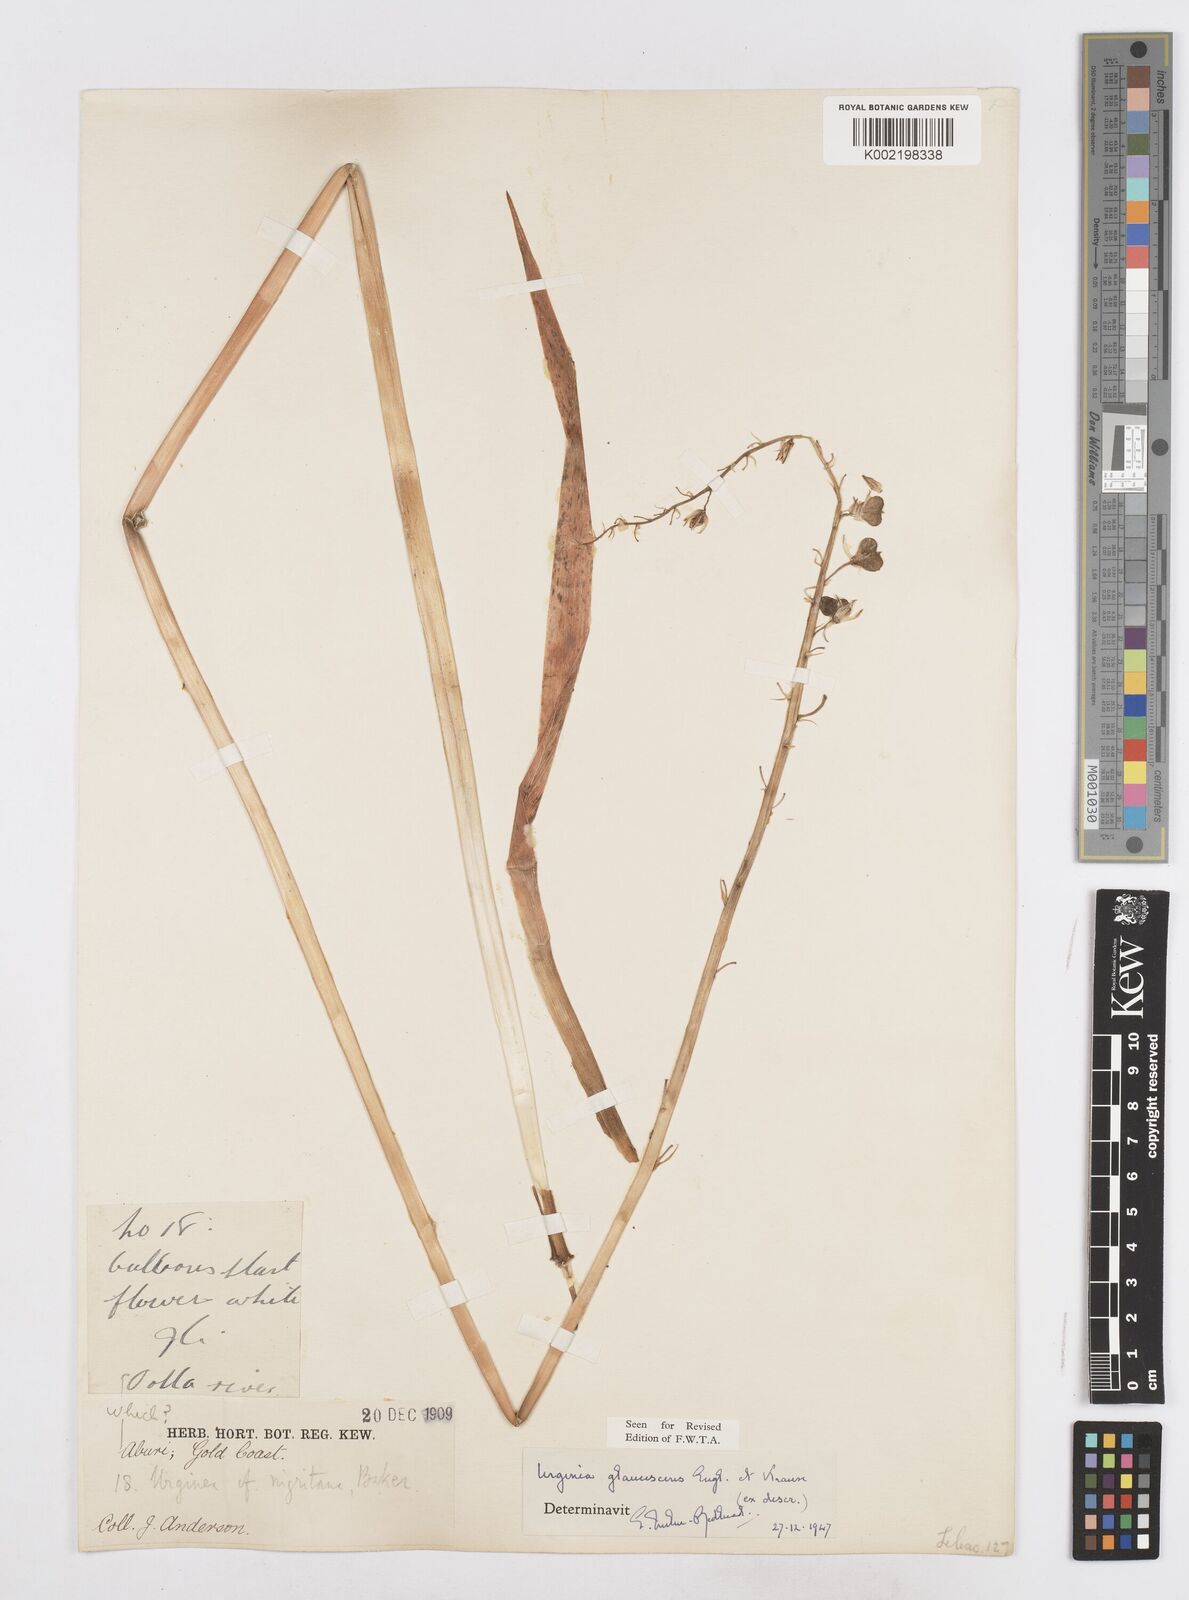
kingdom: Plantae
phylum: Tracheophyta
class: Liliopsida
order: Asparagales
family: Asparagaceae
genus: Ledebouria
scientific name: Ledebouria ensifolia
